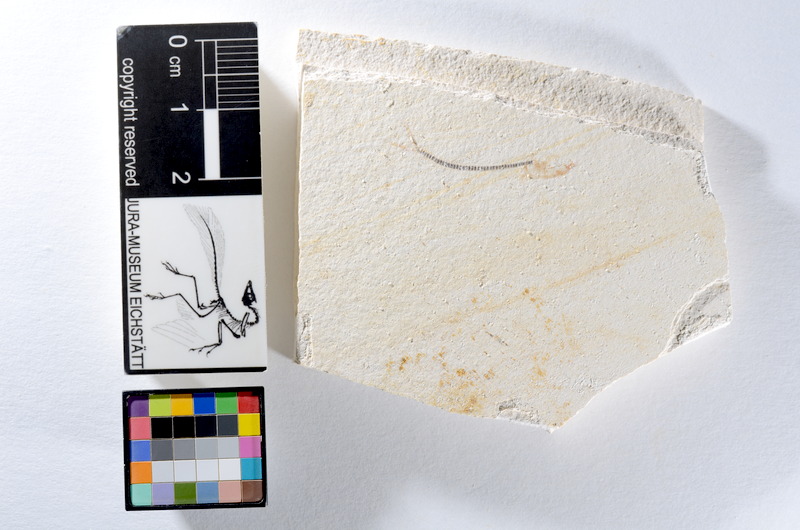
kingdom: Animalia
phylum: Chordata
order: Salmoniformes
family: Orthogonikleithridae
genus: Orthogonikleithrus
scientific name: Orthogonikleithrus hoelli
